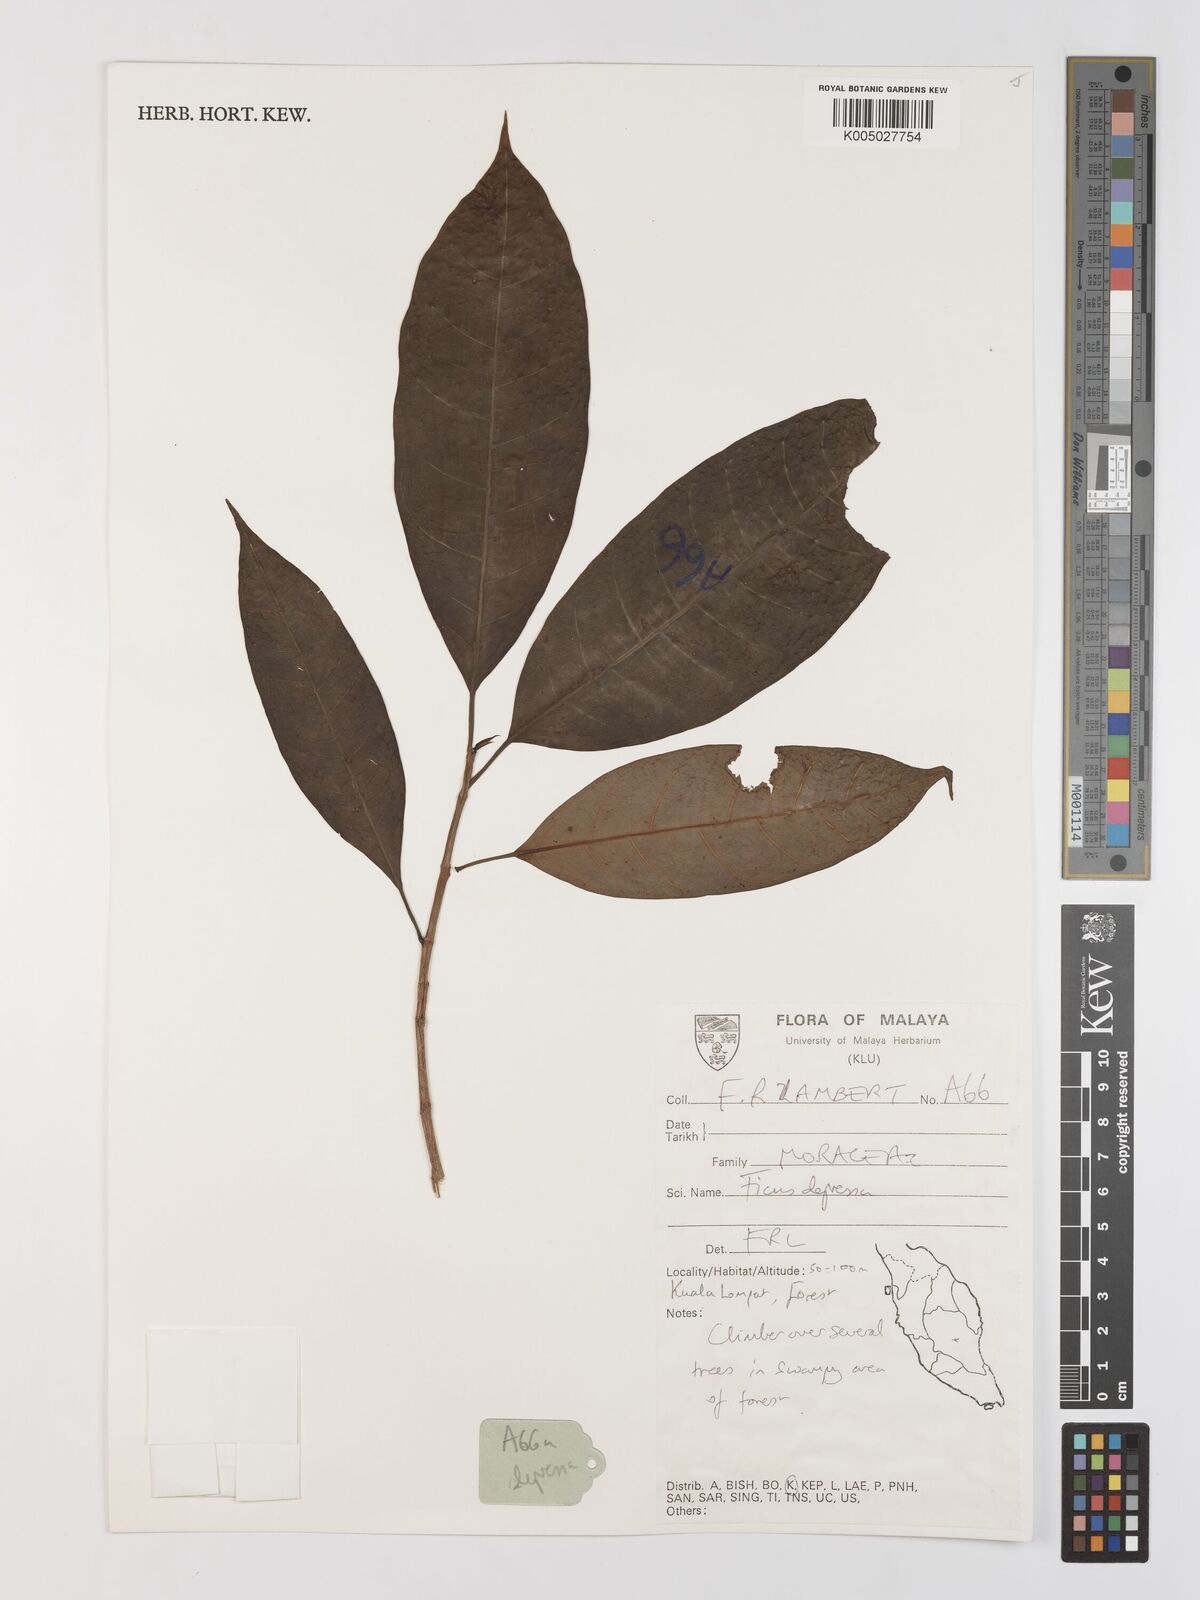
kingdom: Plantae
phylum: Tracheophyta
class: Magnoliopsida
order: Rosales
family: Moraceae
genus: Ficus
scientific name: Ficus
